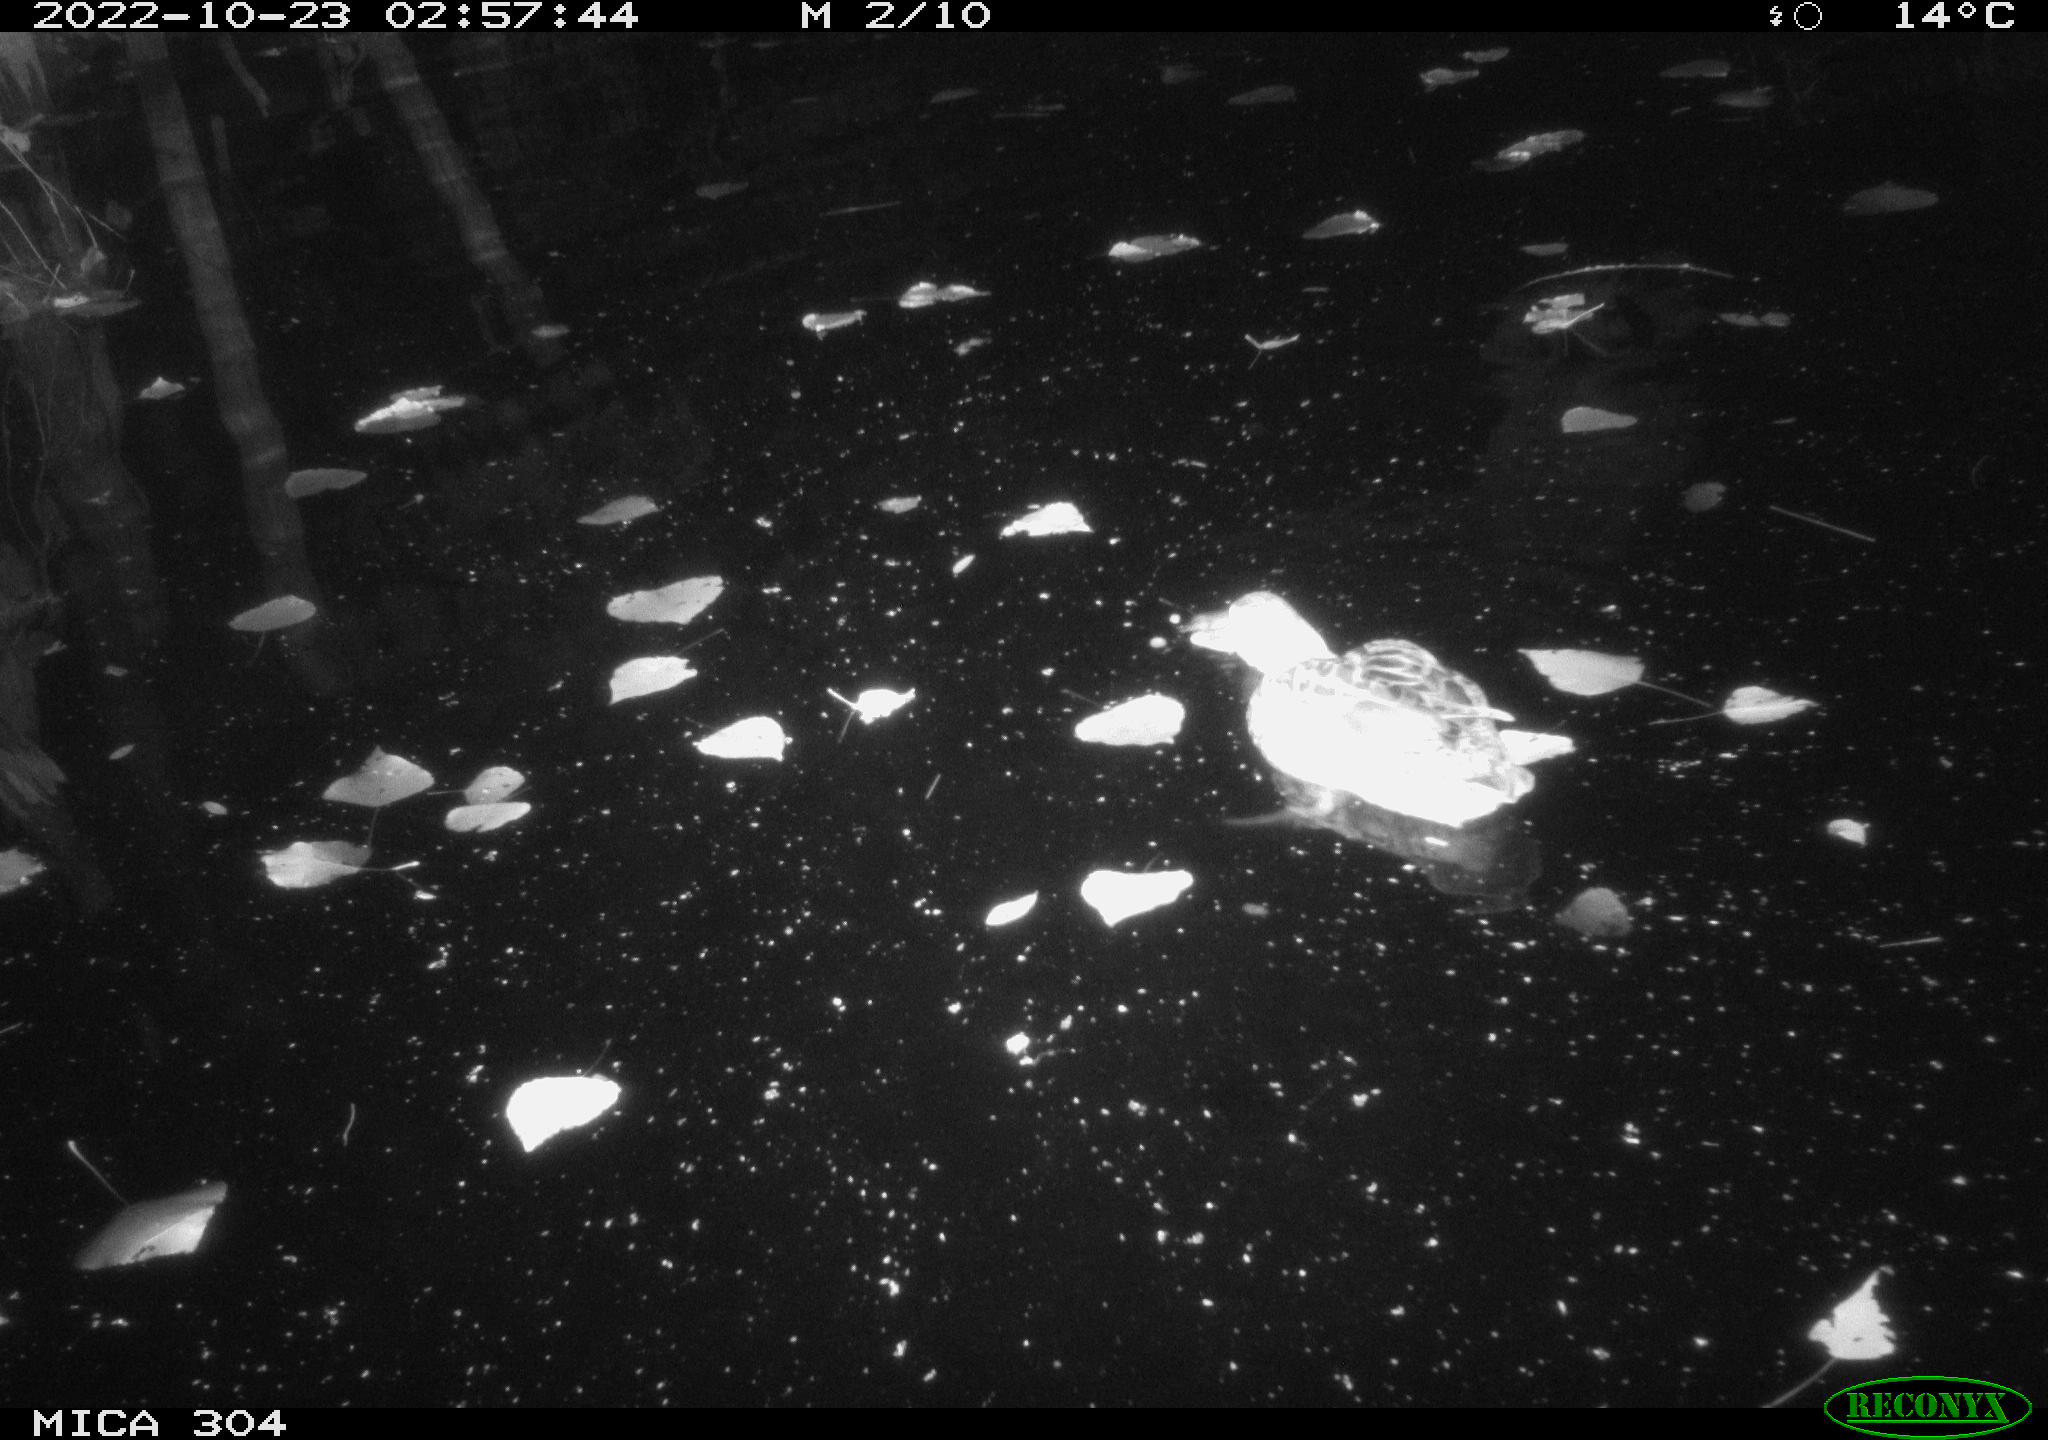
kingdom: Animalia
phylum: Chordata
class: Aves
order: Anseriformes
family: Anatidae
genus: Anas
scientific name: Anas
